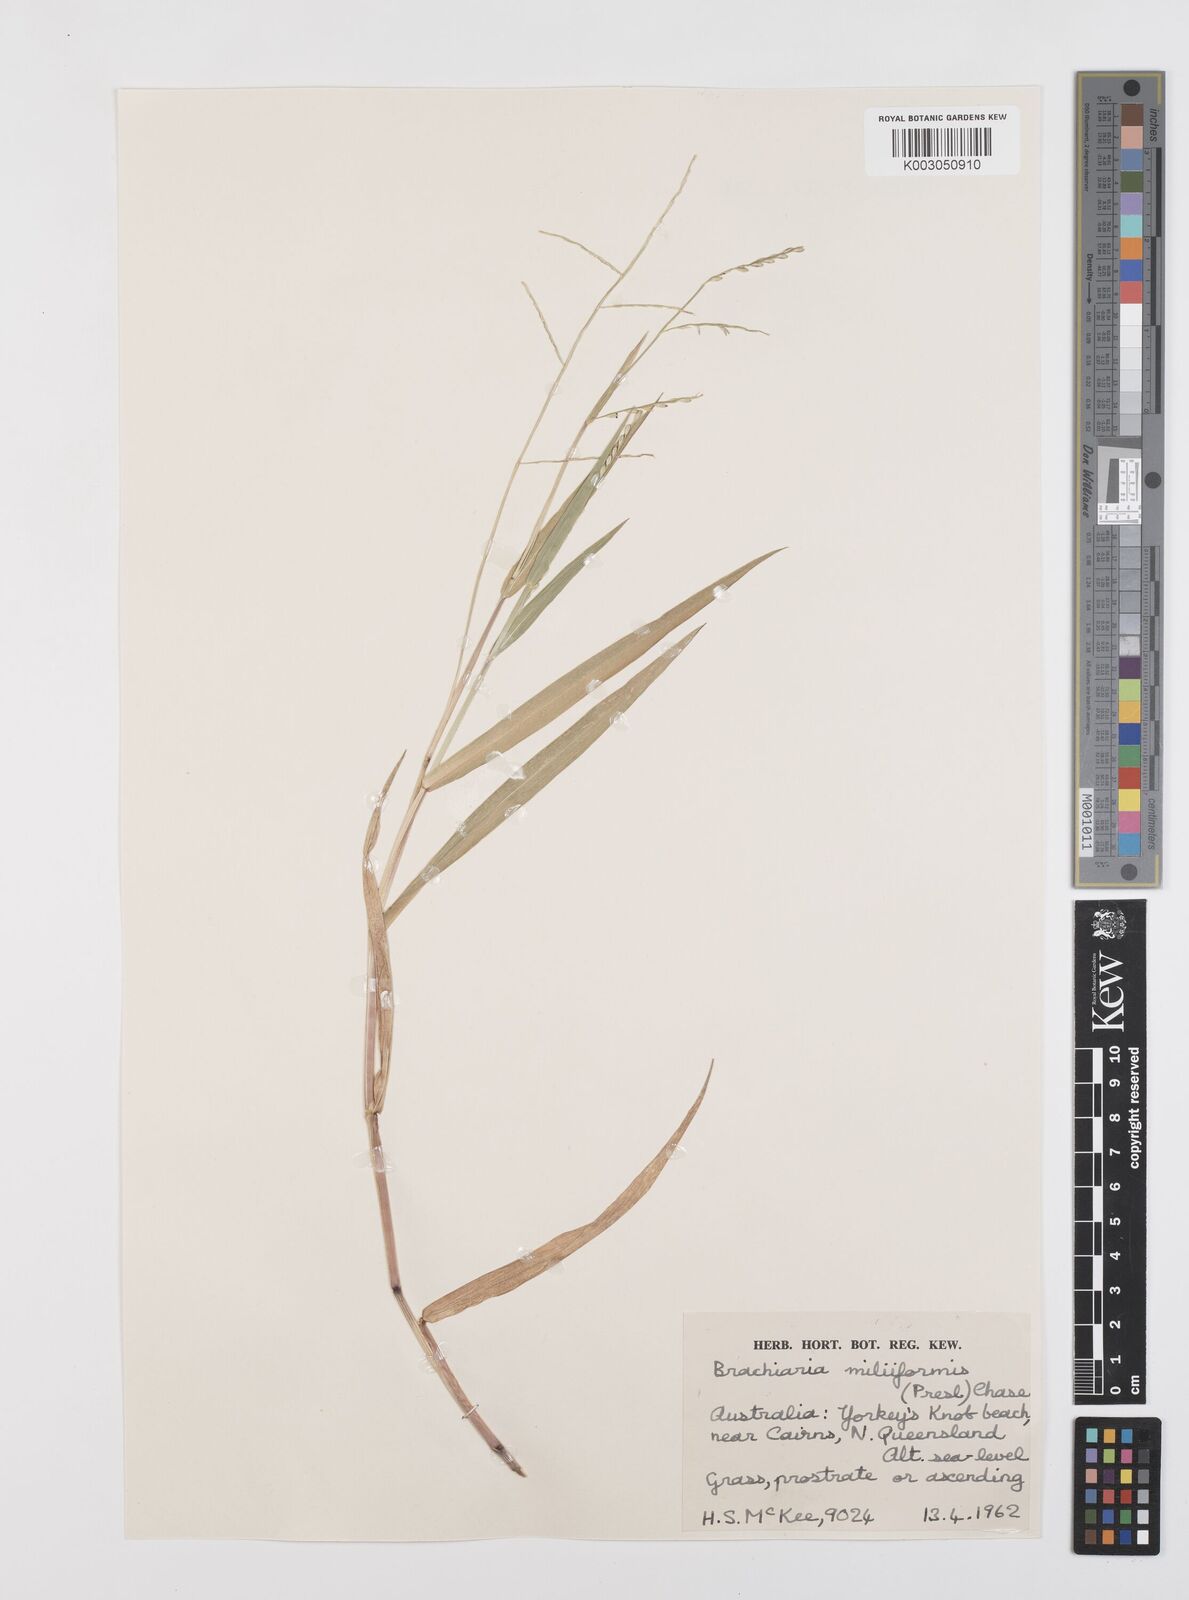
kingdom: Plantae
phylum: Tracheophyta
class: Liliopsida
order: Poales
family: Poaceae
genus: Urochloa
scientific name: Urochloa subquadripara
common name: Armgrass millet
